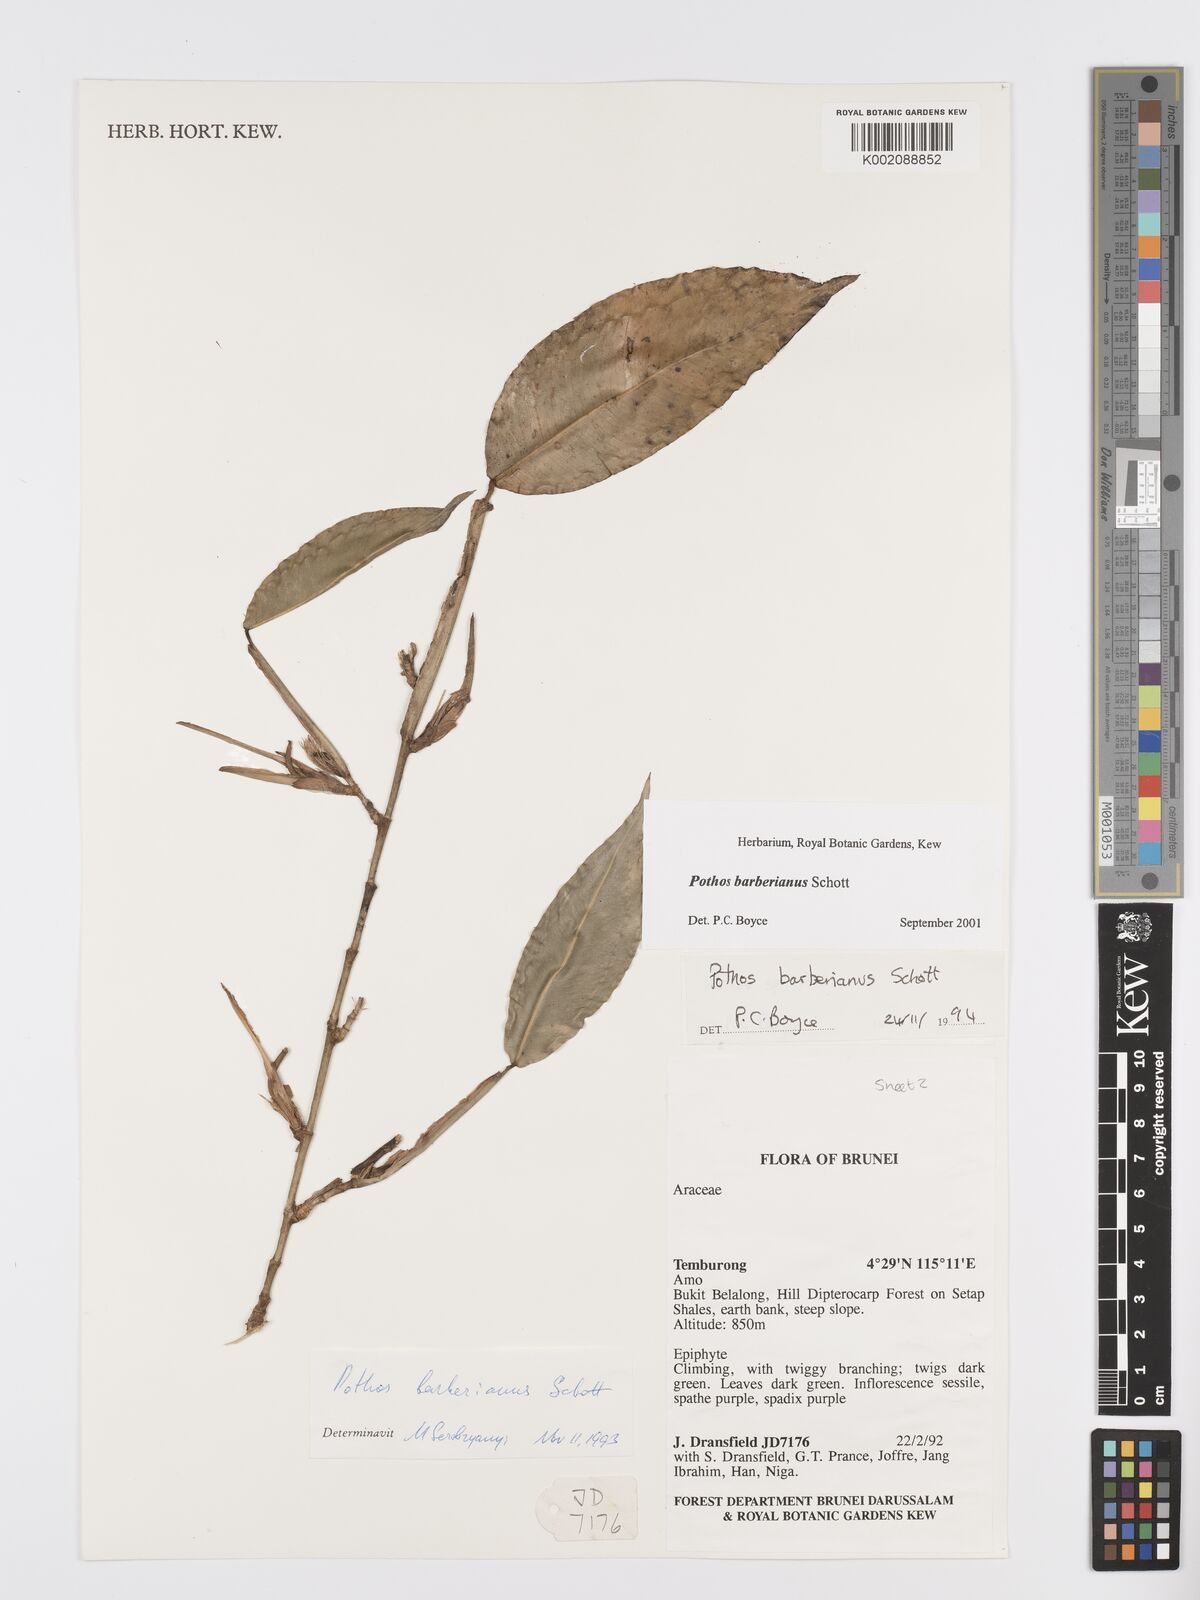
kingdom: Plantae
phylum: Tracheophyta
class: Liliopsida
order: Alismatales
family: Araceae
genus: Pothos
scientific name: Pothos barberianus
